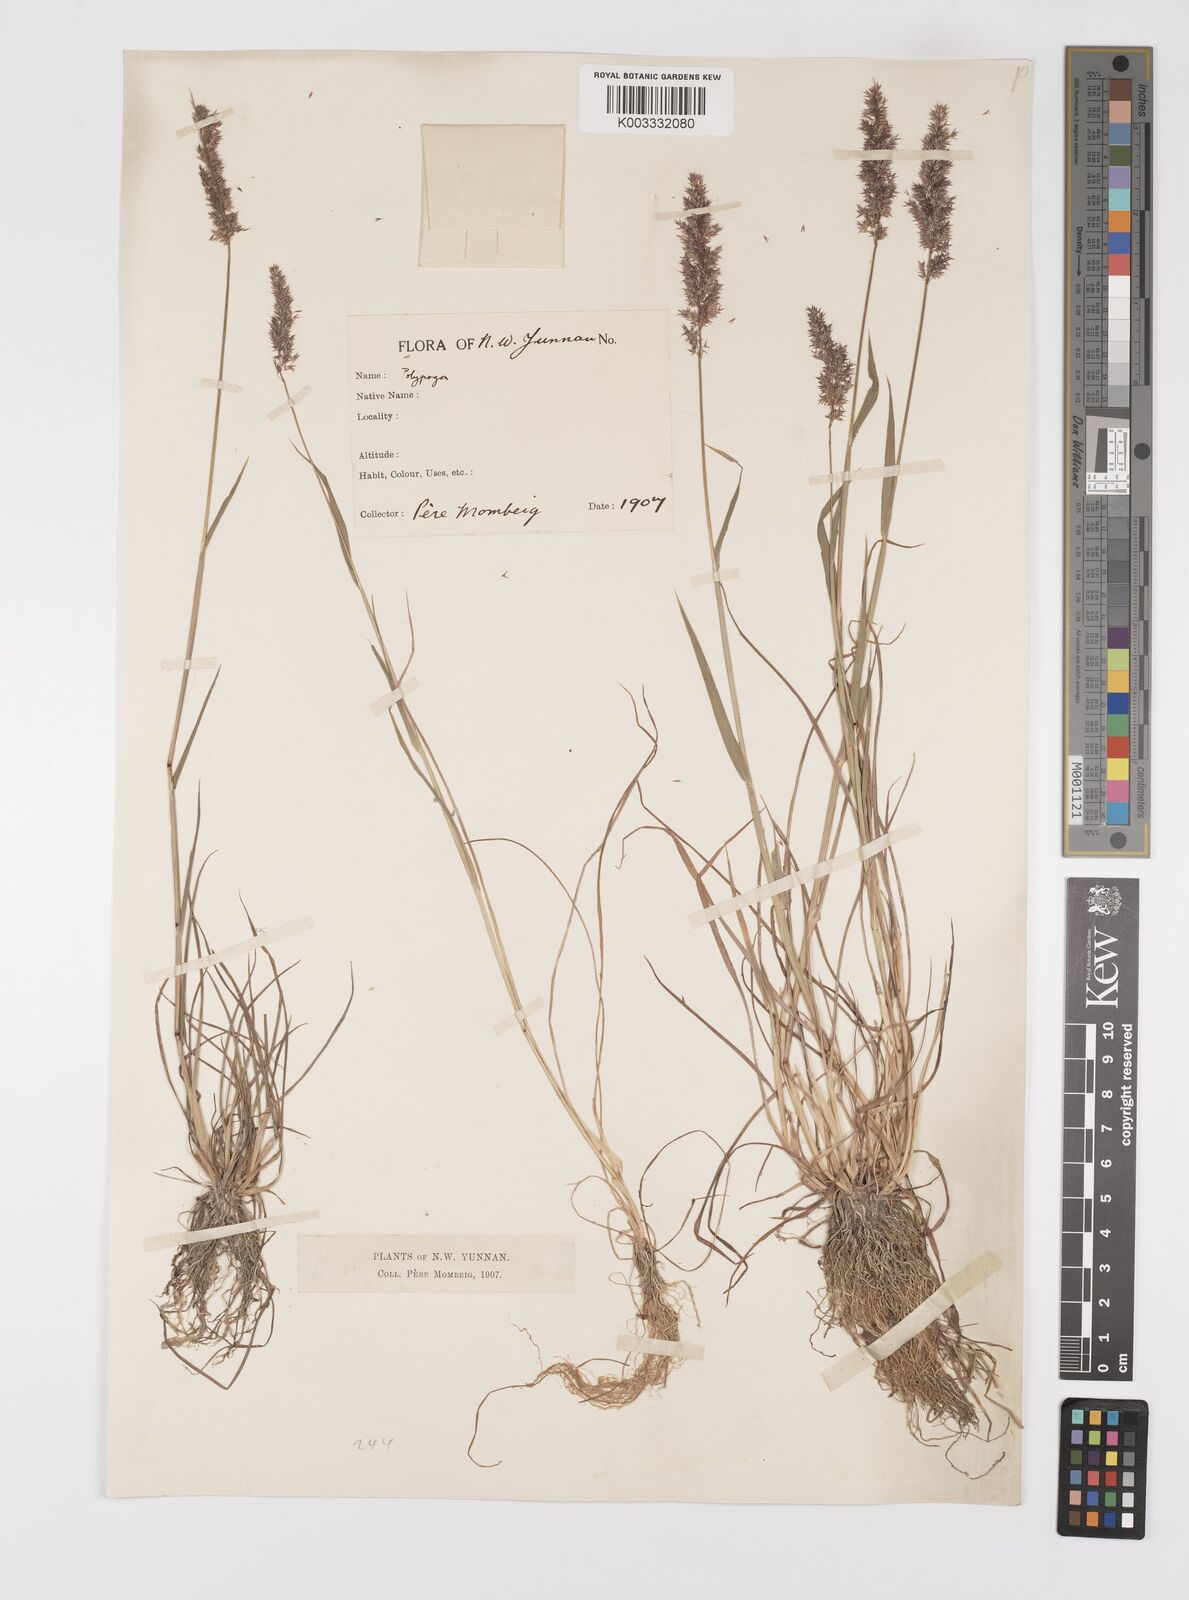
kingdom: Plantae
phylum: Tracheophyta
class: Liliopsida
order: Poales
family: Poaceae
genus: Polypogon
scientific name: Polypogon fugax
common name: Asia minor bluegrass
